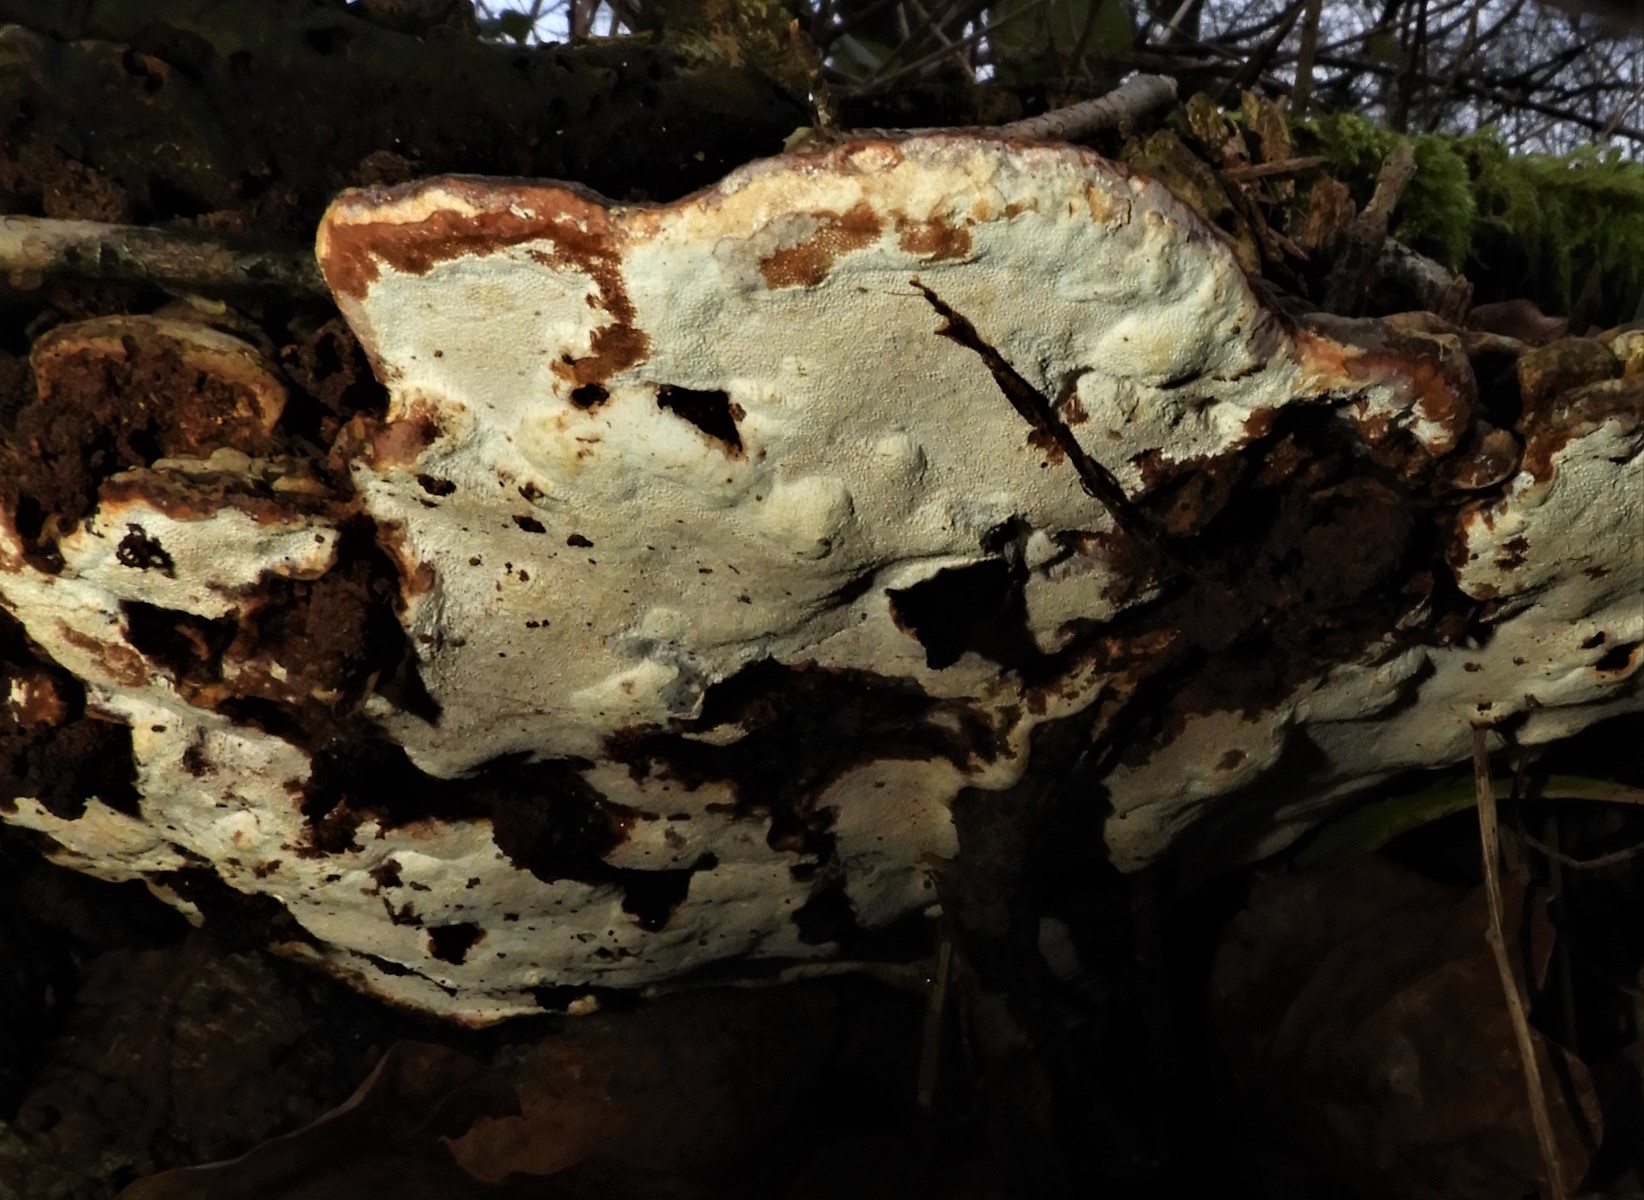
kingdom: Fungi
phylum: Basidiomycota
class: Agaricomycetes
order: Polyporales
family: Polyporaceae
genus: Ganoderma
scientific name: Ganoderma applanatum
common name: flad lakporesvamp
